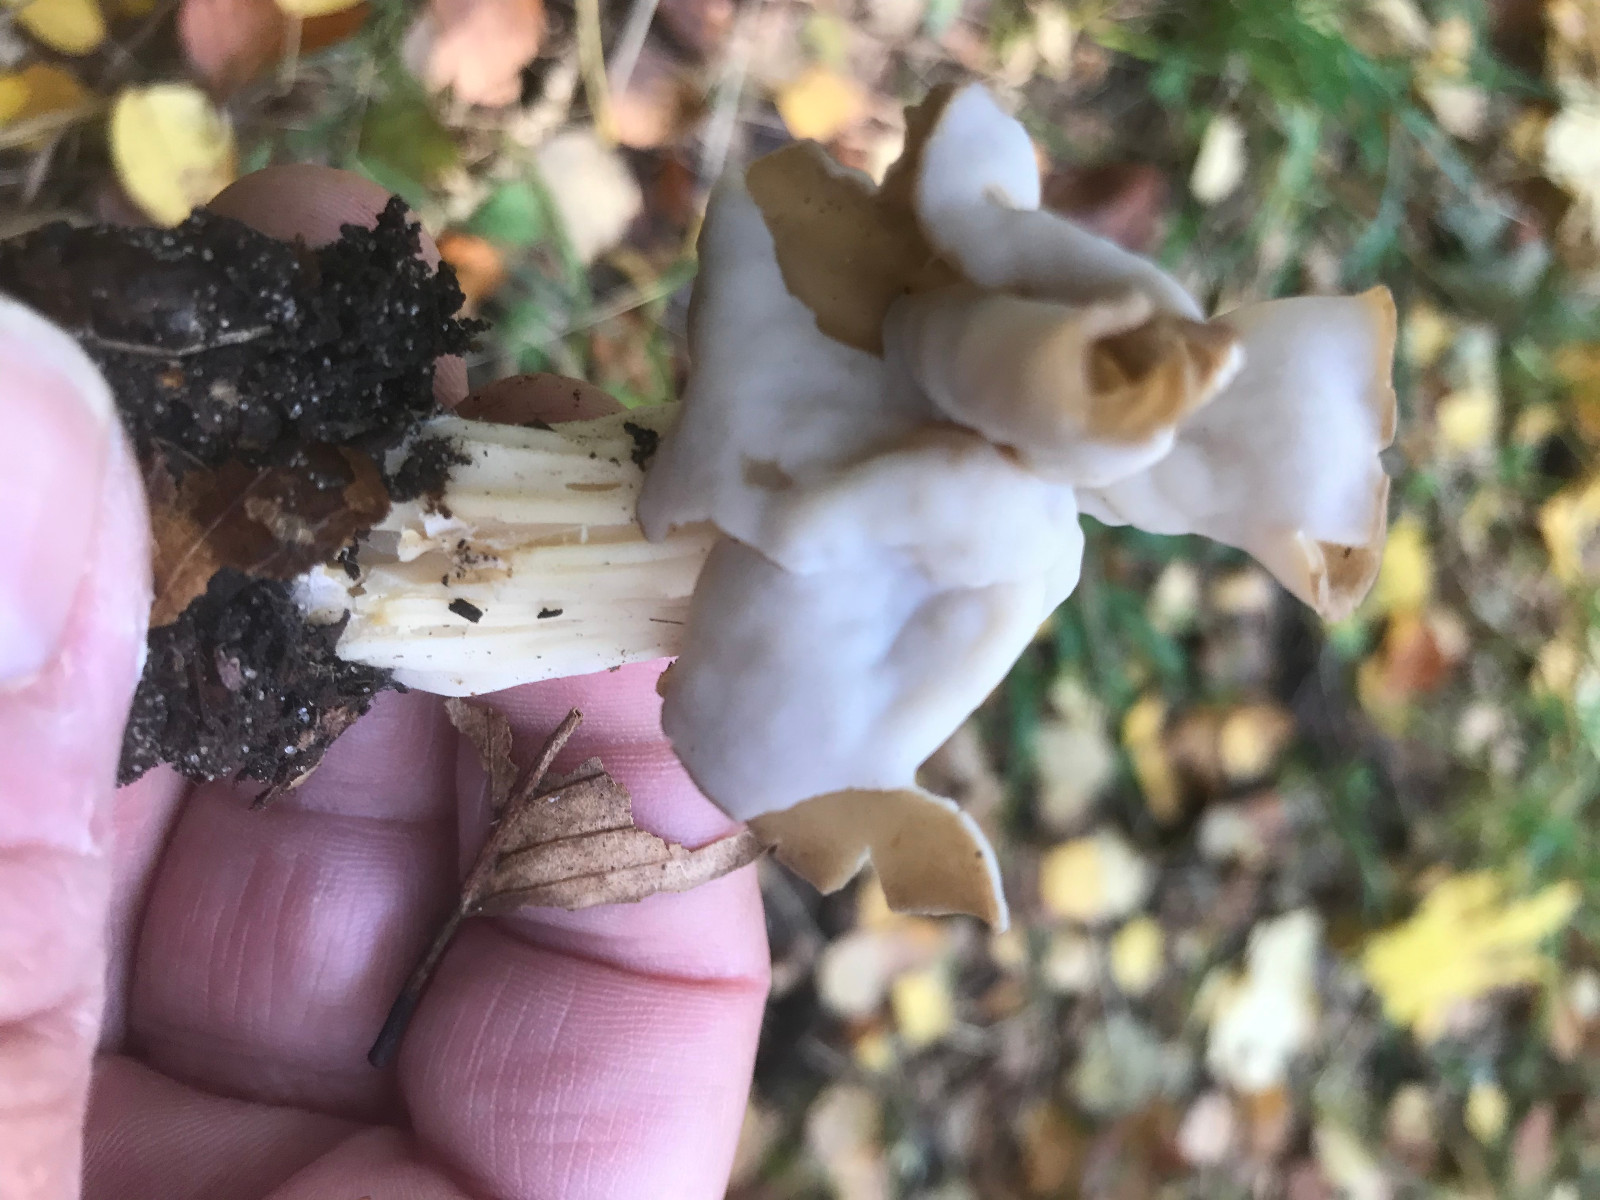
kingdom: Fungi
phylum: Ascomycota
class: Pezizomycetes
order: Pezizales
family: Helvellaceae
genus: Helvella
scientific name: Helvella crispa
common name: kruset foldhat
